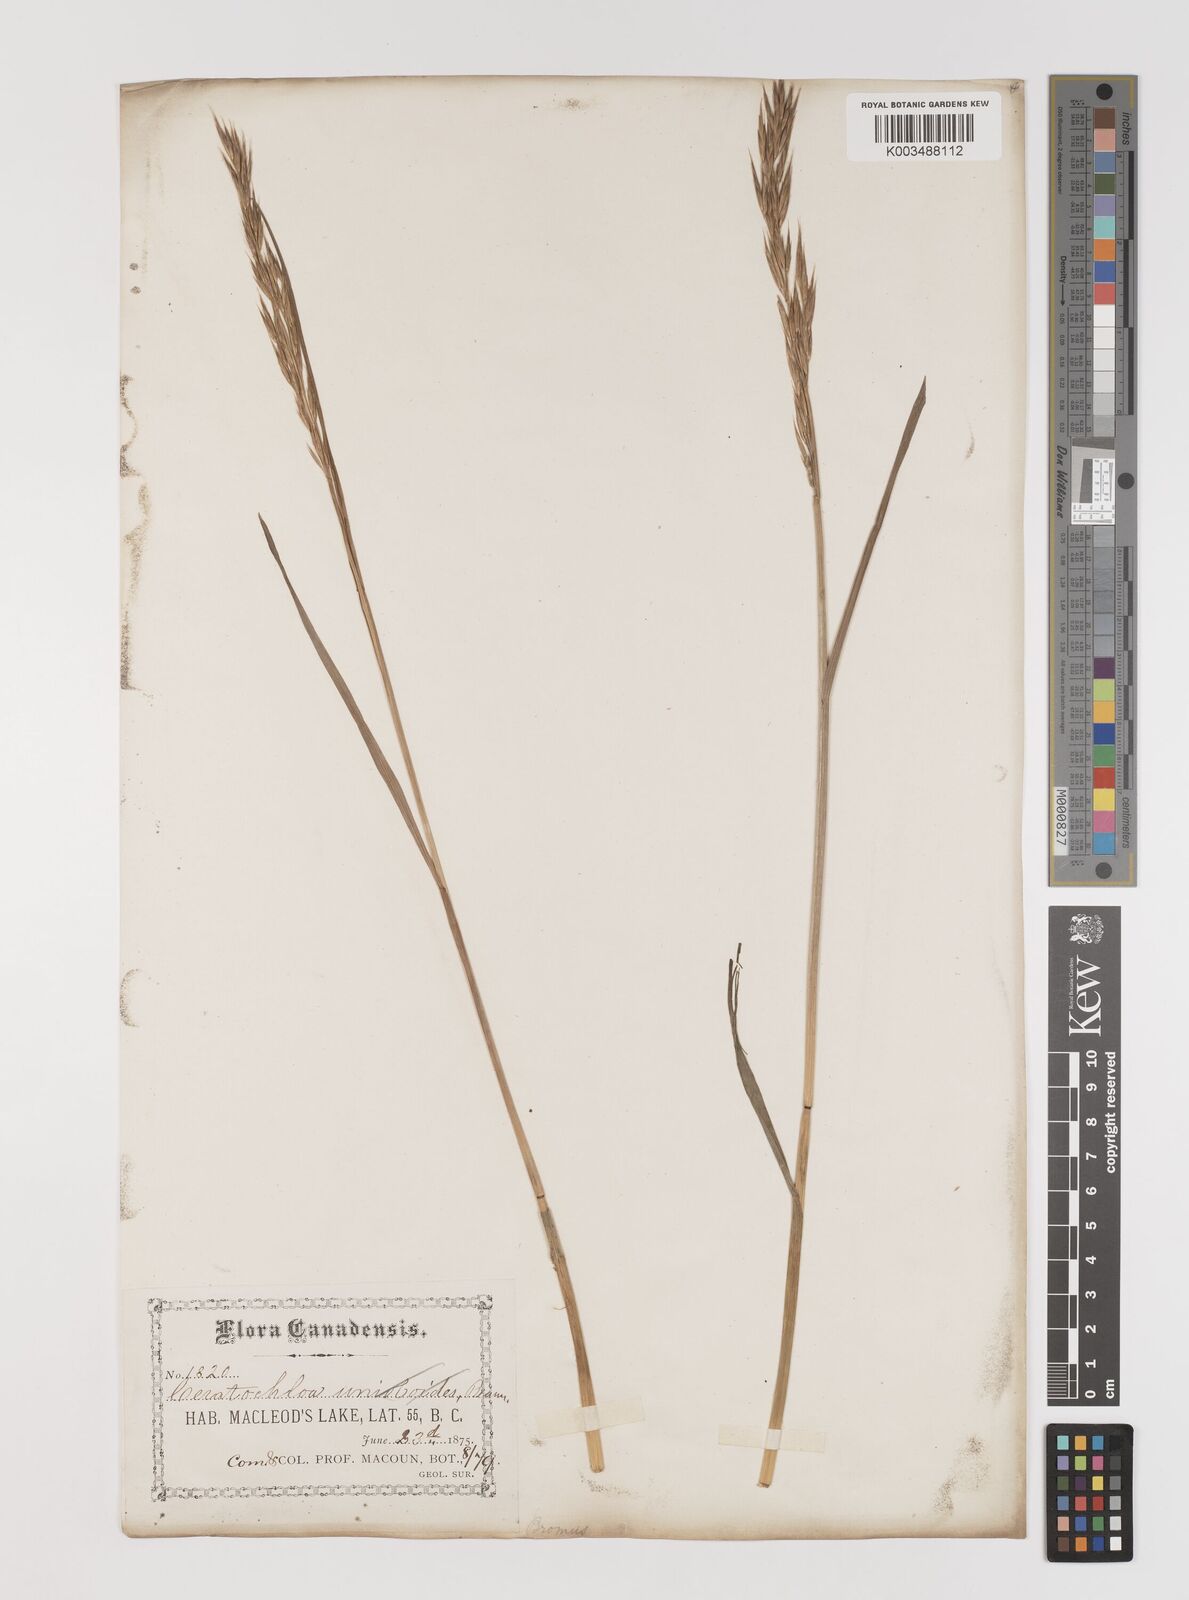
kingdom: Plantae
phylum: Tracheophyta
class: Liliopsida
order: Poales
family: Poaceae
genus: Bromus
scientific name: Bromus pumpellianus
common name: Pumpelly's brome
